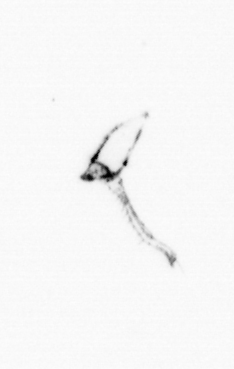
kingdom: Chromista
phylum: Ochrophyta
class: Bacillariophyceae
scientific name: Bacillariophyceae
